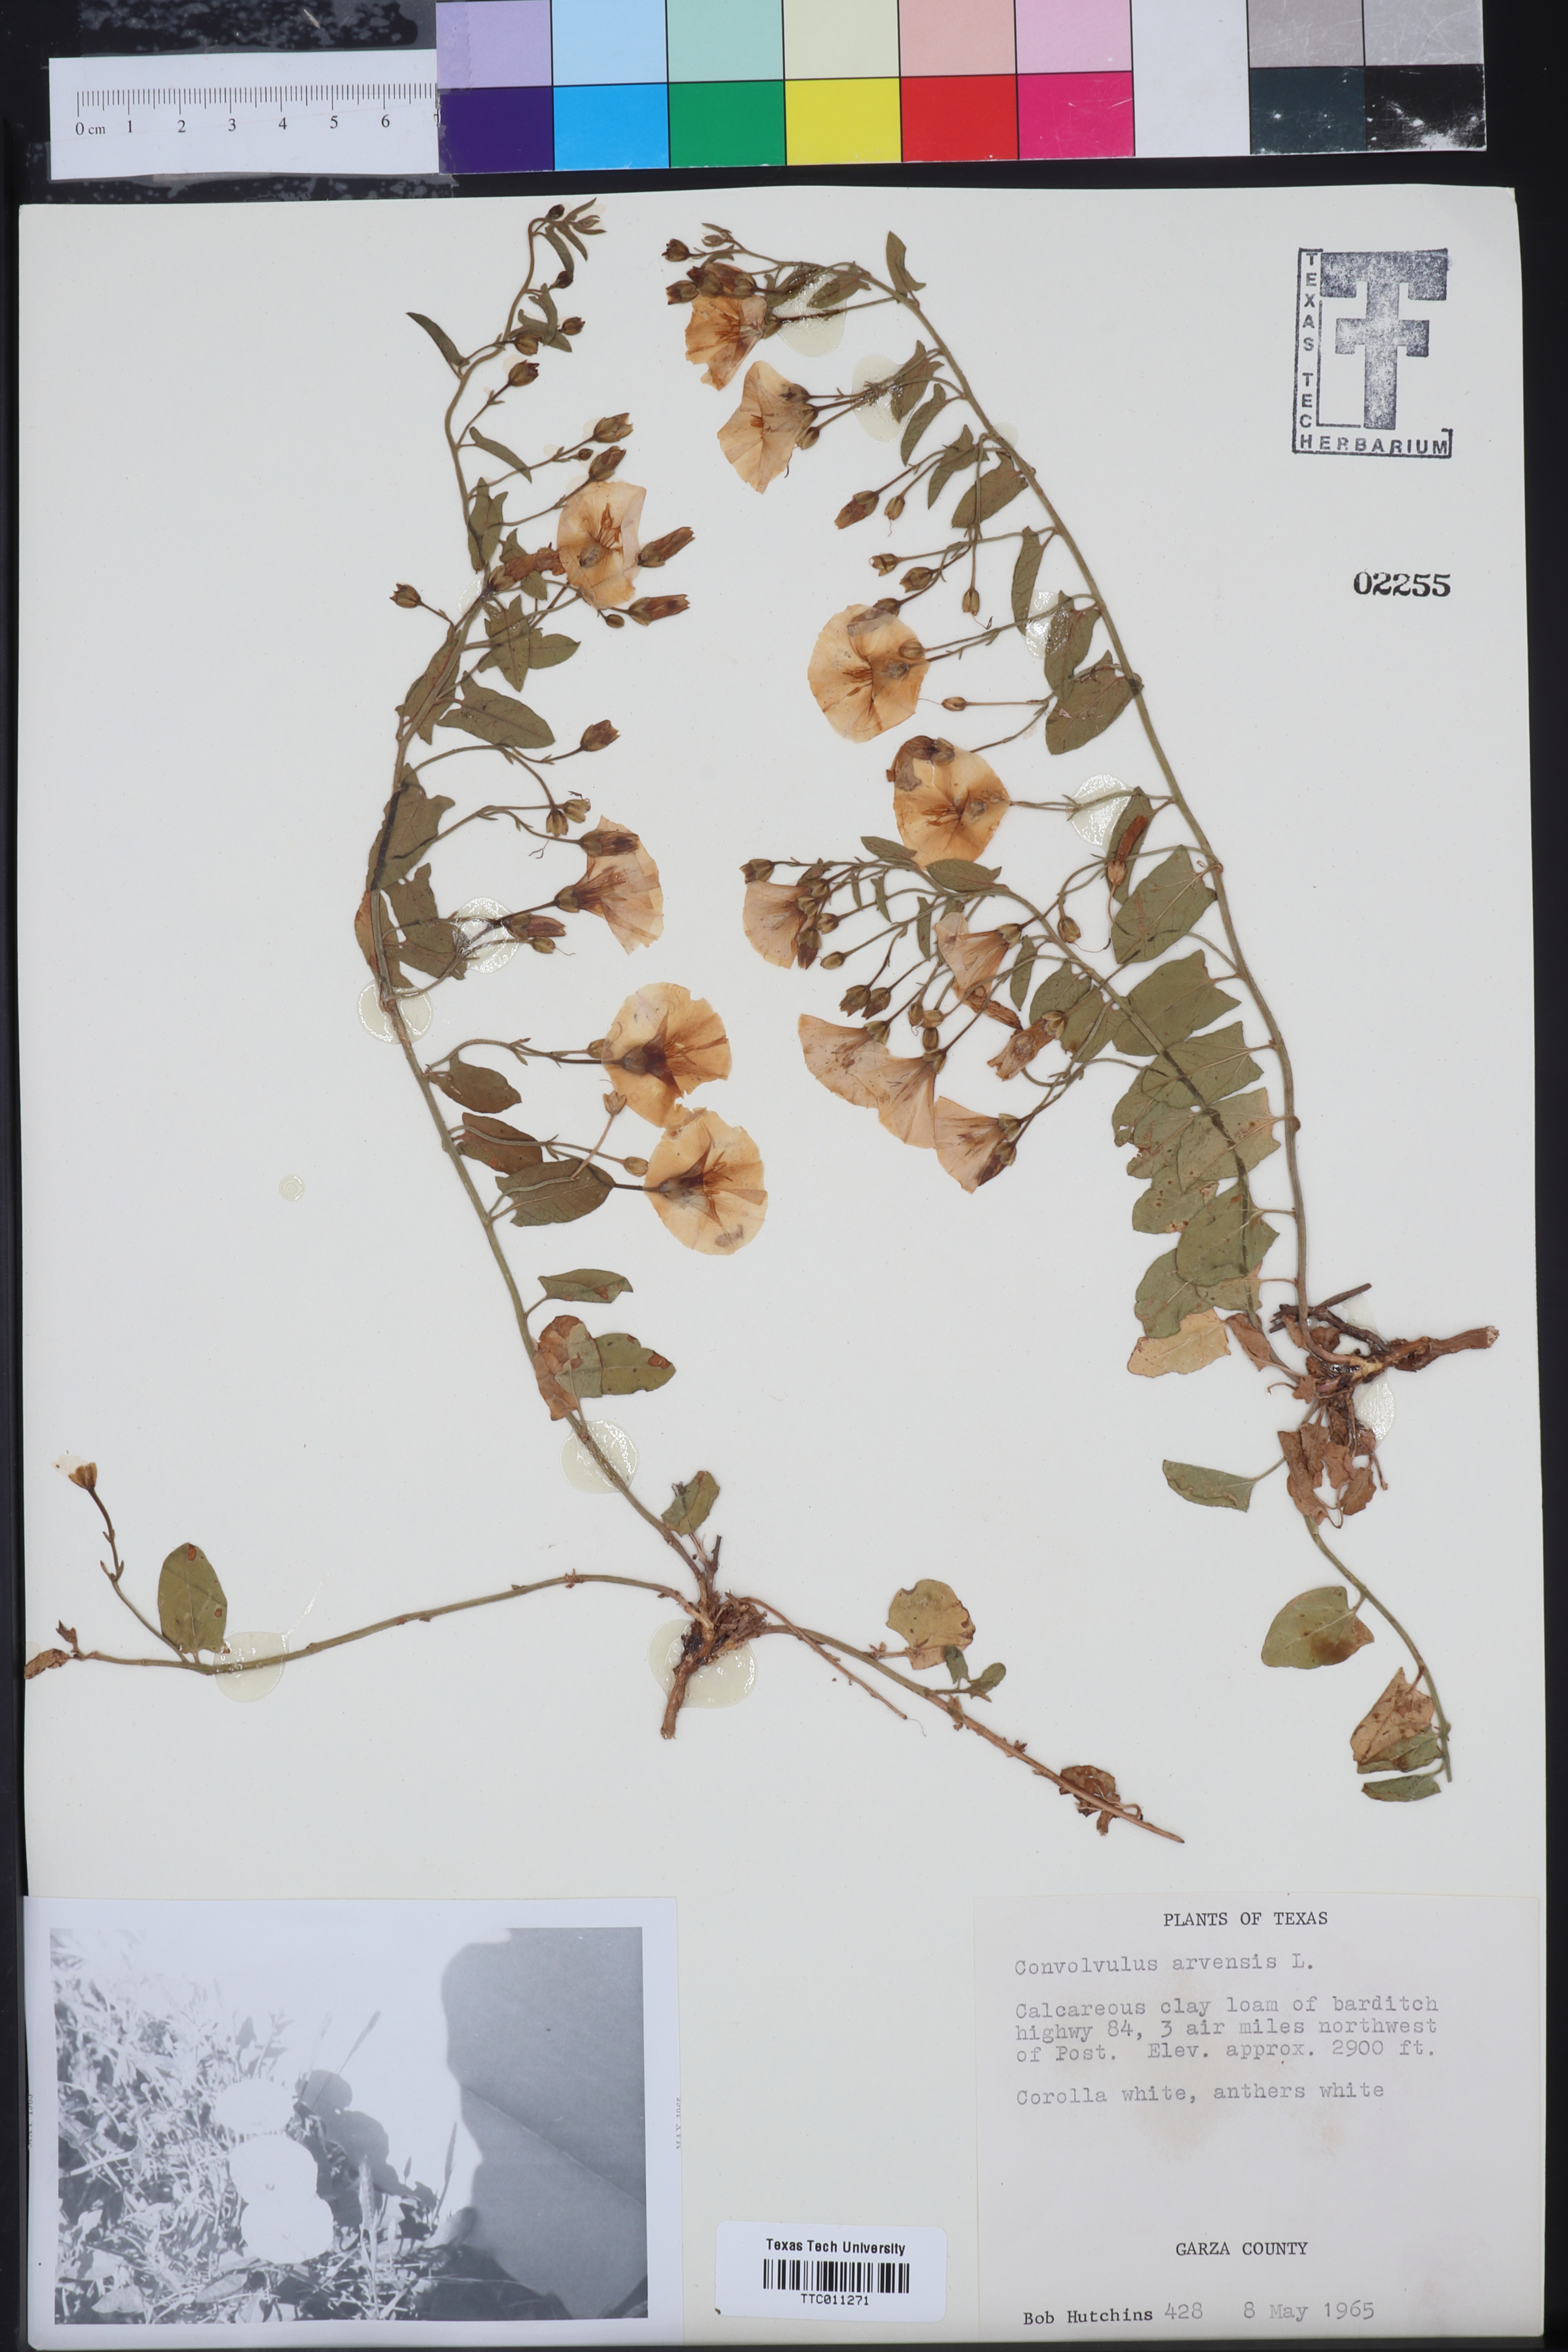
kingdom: Plantae
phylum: Tracheophyta
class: Magnoliopsida
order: Solanales
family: Convolvulaceae
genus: Convolvulus
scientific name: Convolvulus arvensis
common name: Field bindweed
